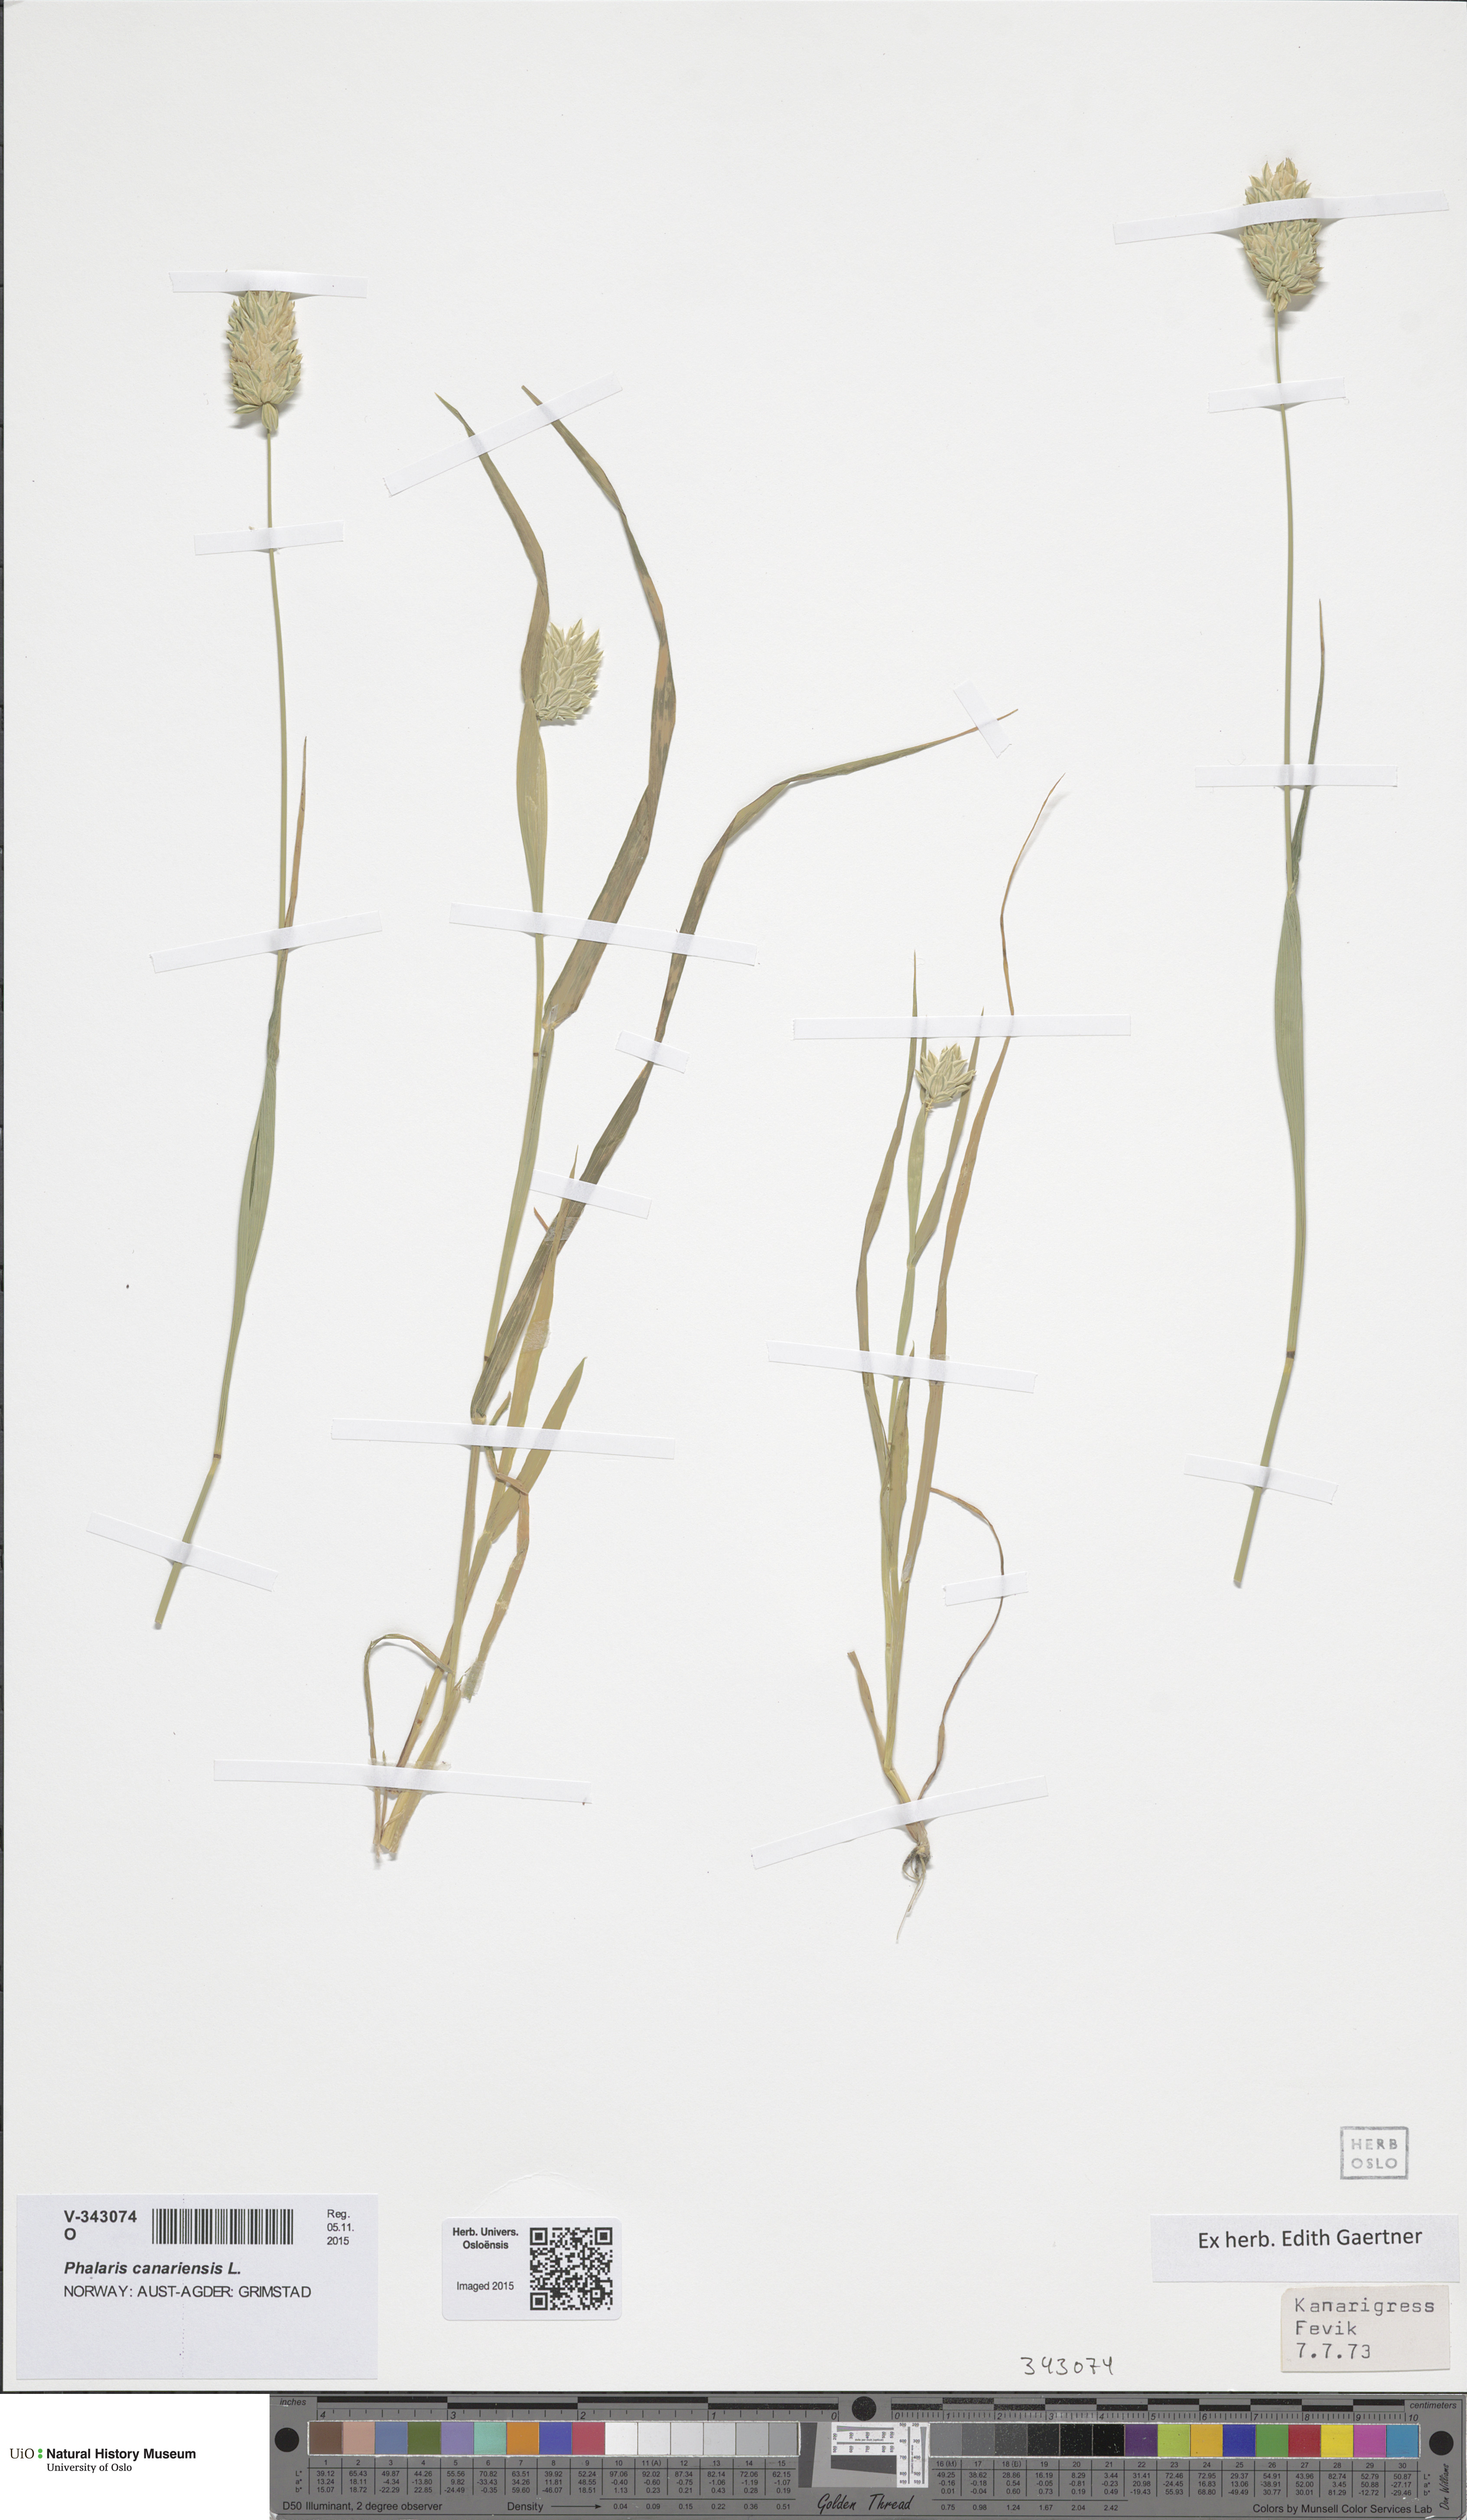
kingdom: Plantae
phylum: Tracheophyta
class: Liliopsida
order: Poales
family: Poaceae
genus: Phalaris
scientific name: Phalaris canariensis
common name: Annual canarygrass
